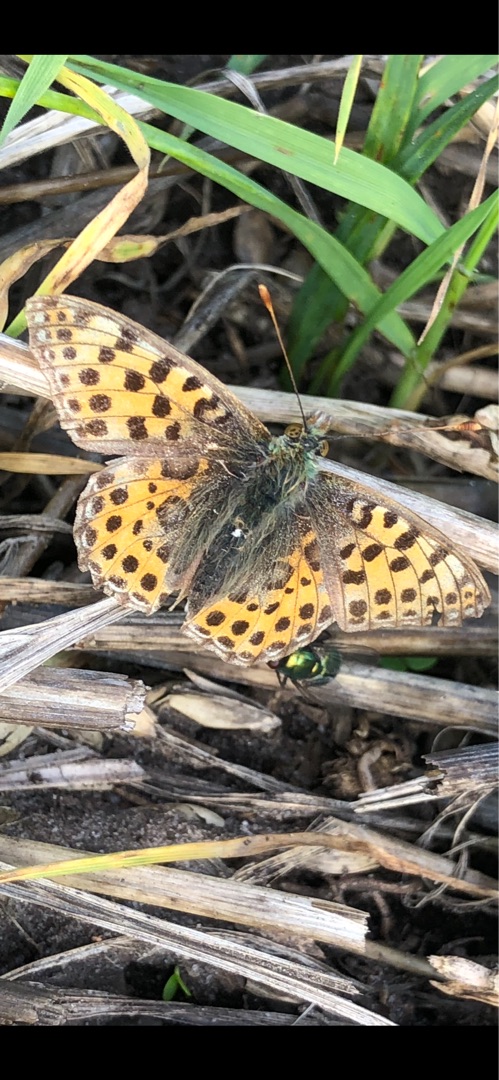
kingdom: Animalia
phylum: Arthropoda
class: Insecta
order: Lepidoptera
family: Nymphalidae
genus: Issoria
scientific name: Issoria lathonia
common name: Storplettet perlemorsommerfugl
